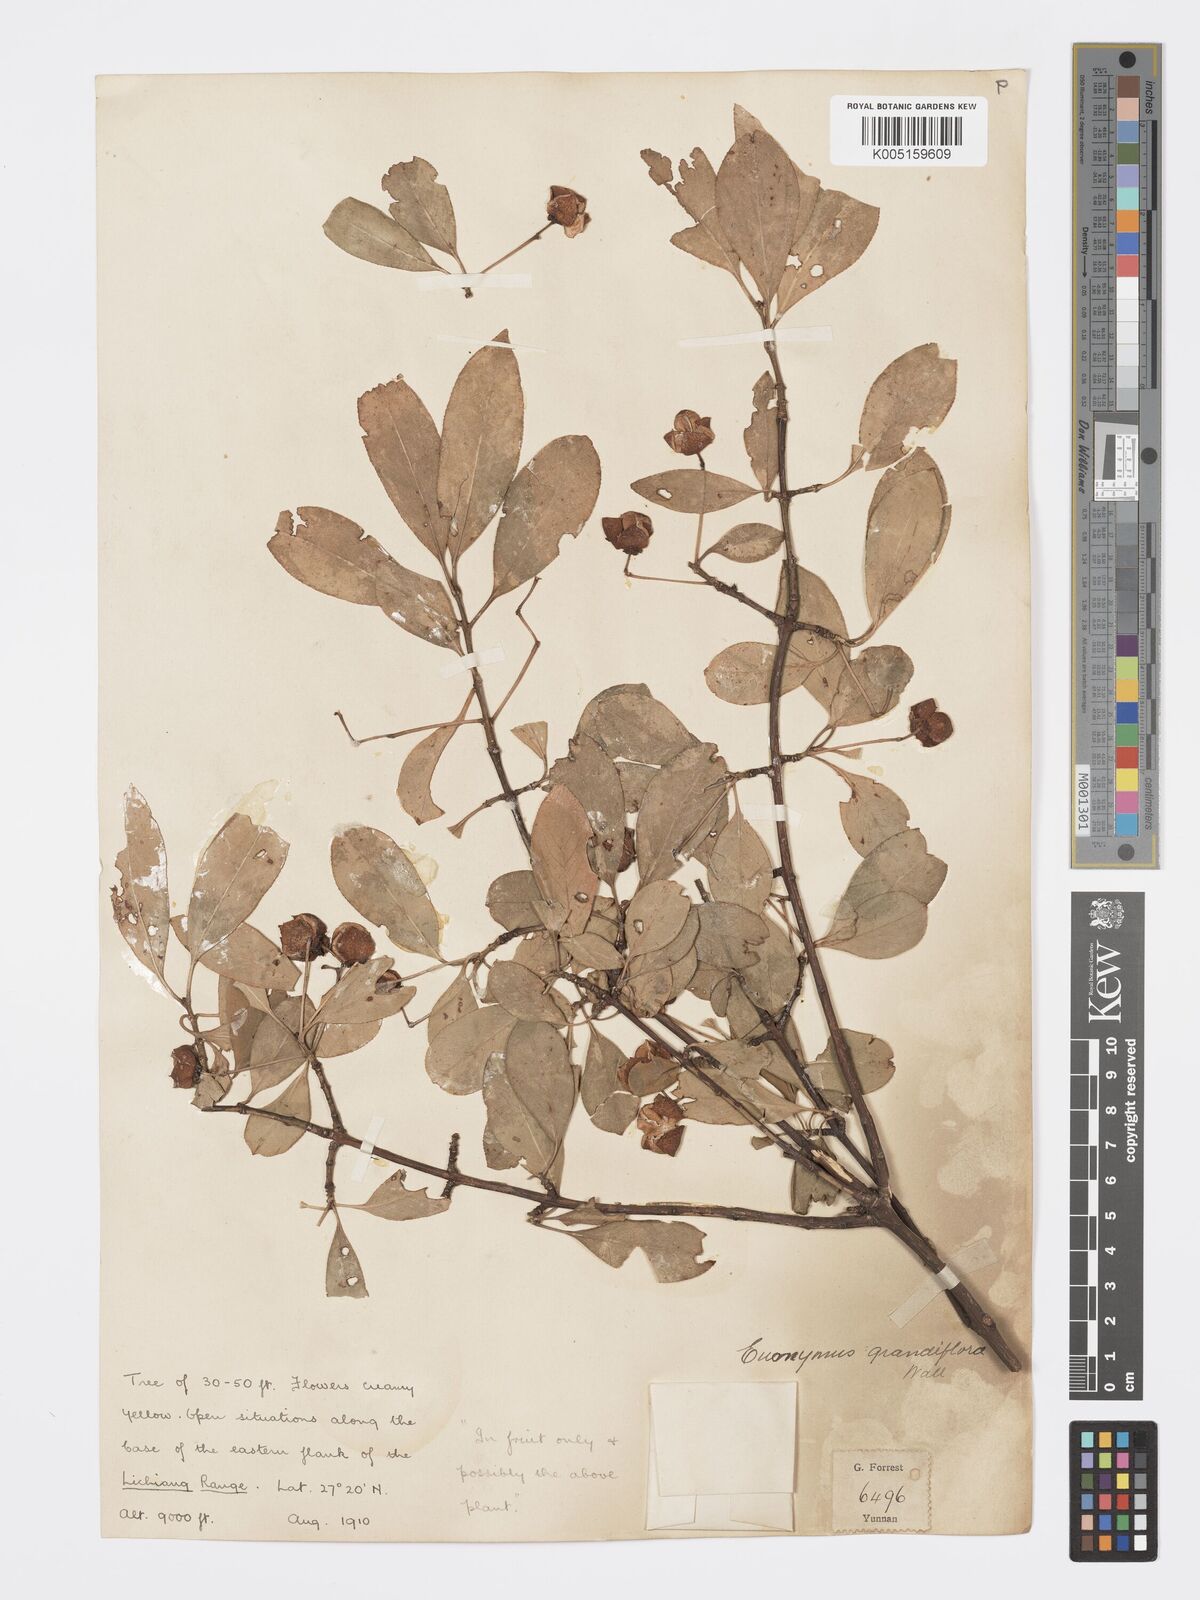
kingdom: Plantae
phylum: Tracheophyta
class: Magnoliopsida
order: Celastrales
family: Celastraceae
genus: Euonymus
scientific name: Euonymus grandiflorus
